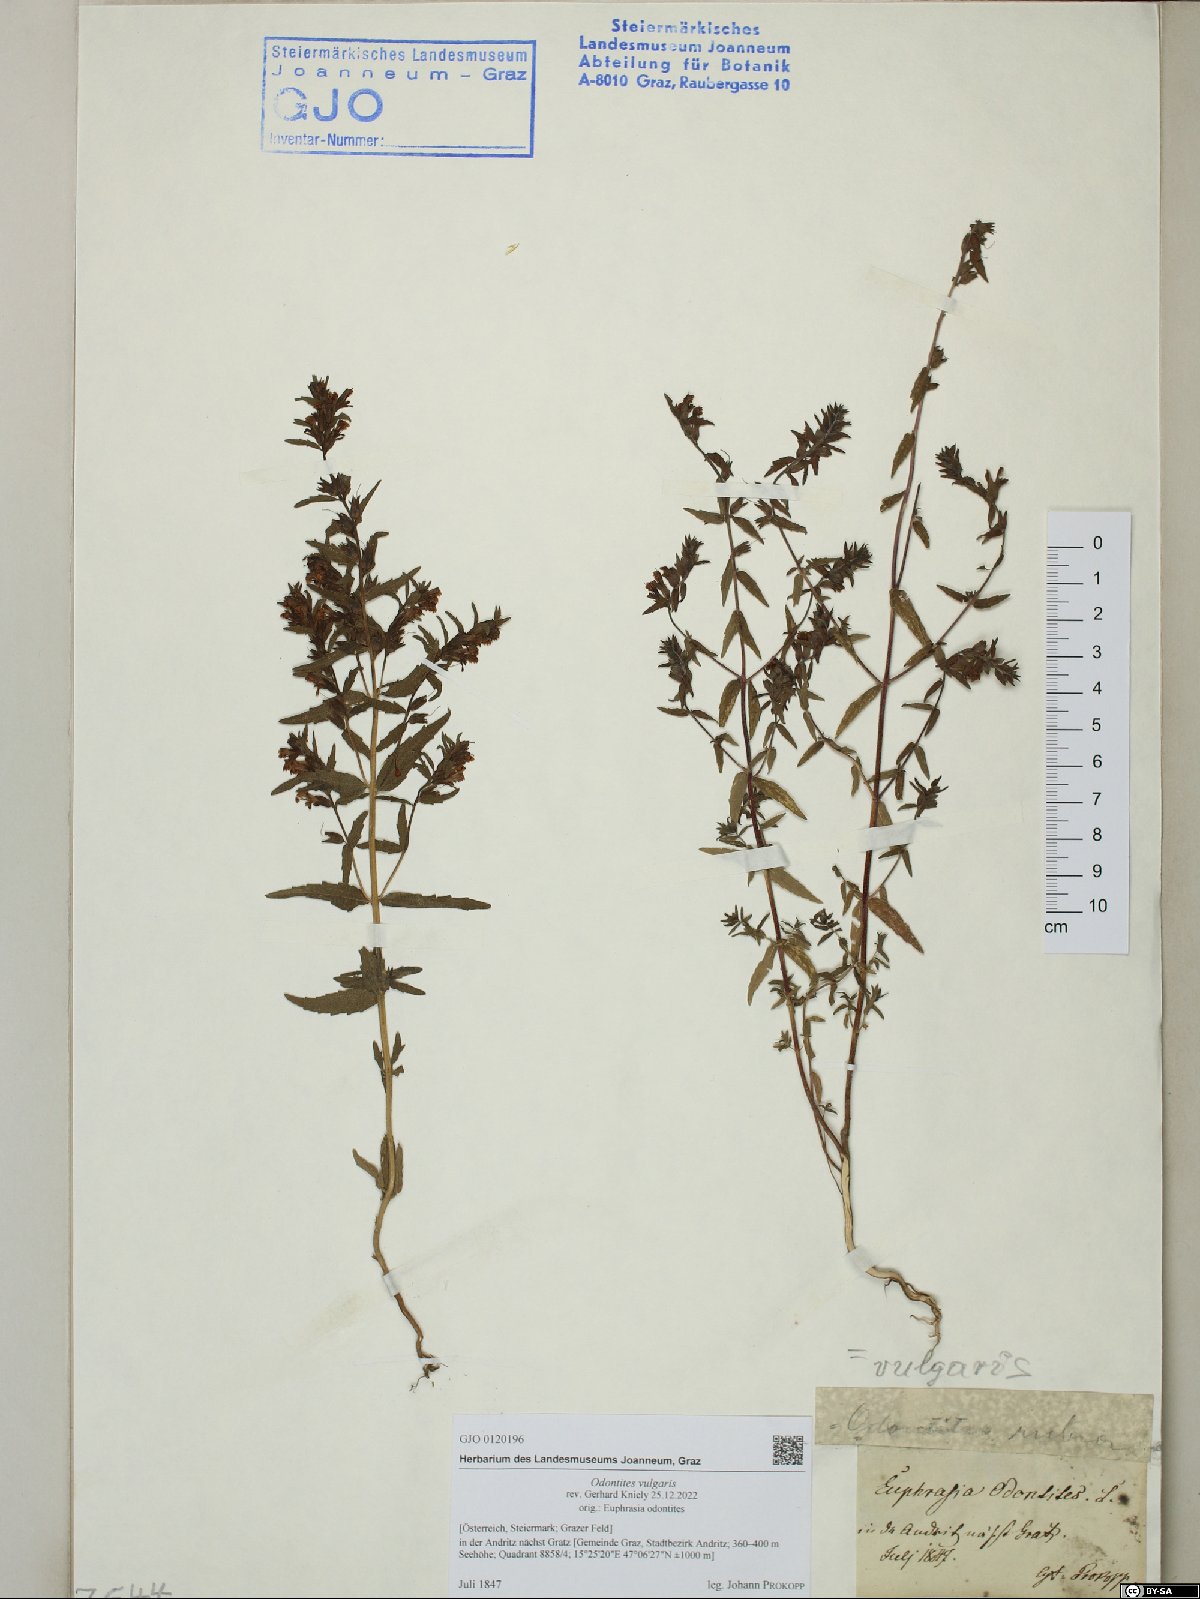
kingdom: Plantae
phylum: Tracheophyta
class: Magnoliopsida
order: Lamiales
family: Orobanchaceae
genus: Odontites
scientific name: Odontites vulgaris
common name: Broomrape
